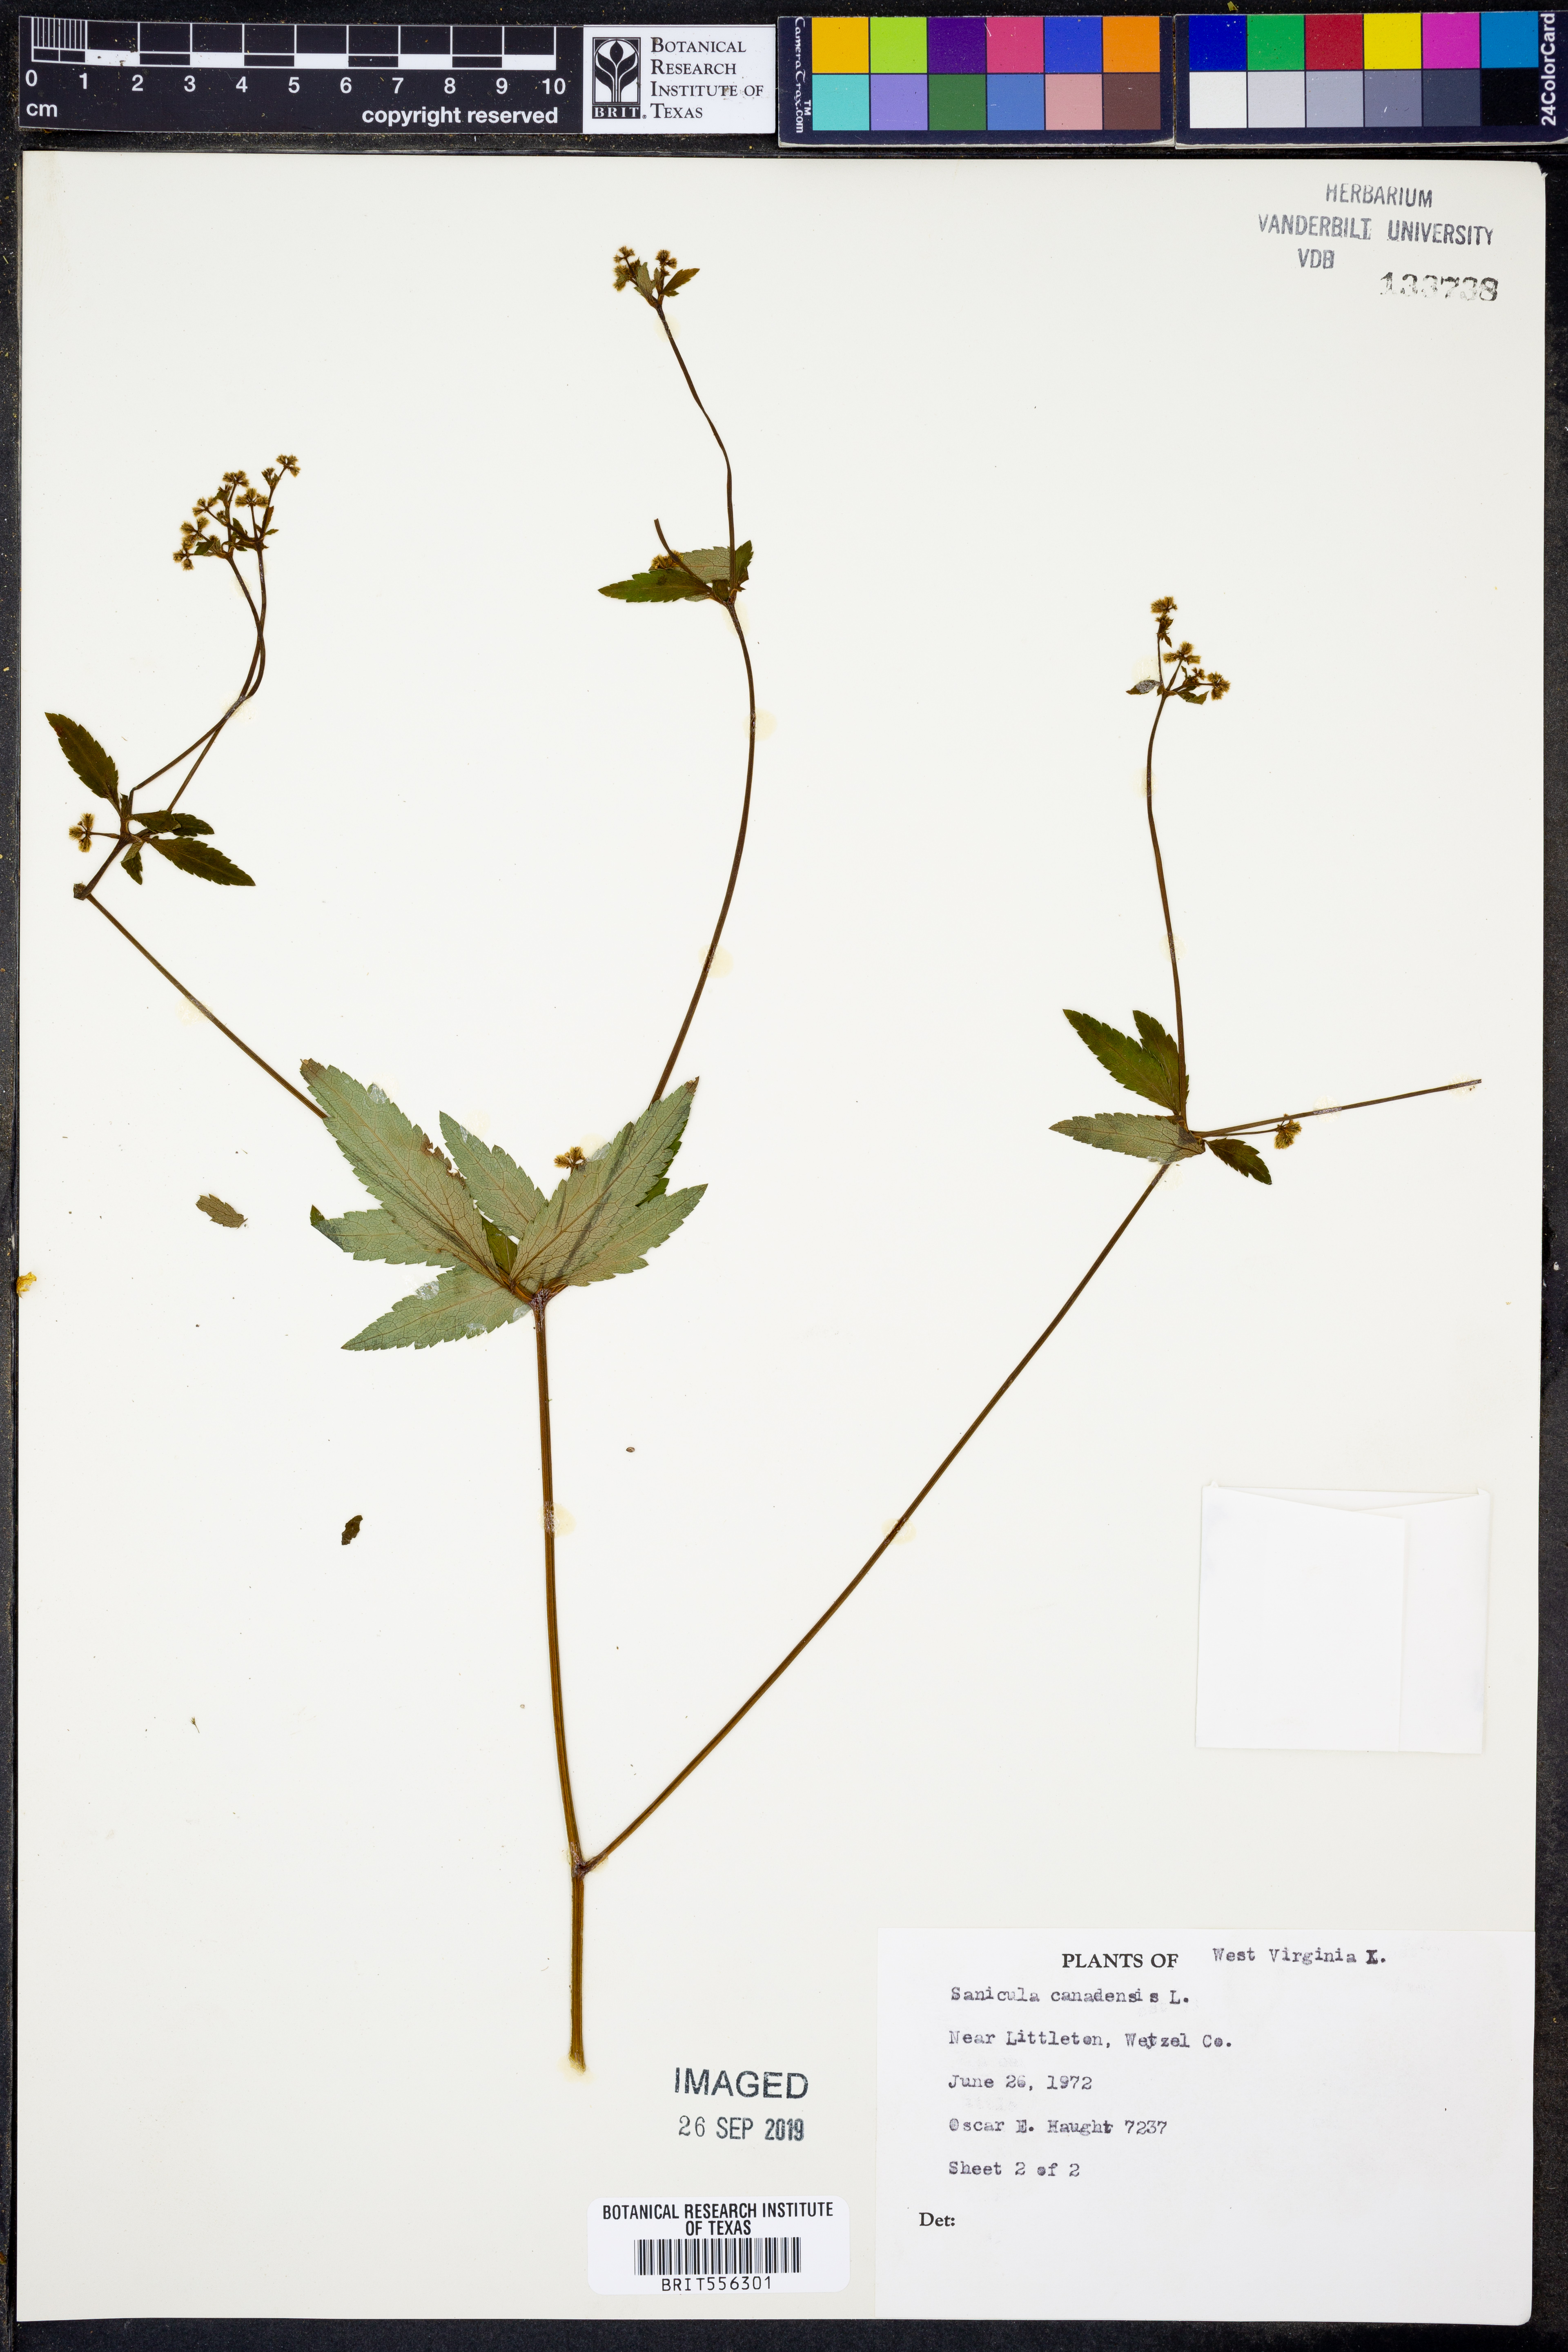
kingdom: Plantae
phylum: Tracheophyta
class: Magnoliopsida
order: Apiales
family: Apiaceae
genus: Sanicula
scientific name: Sanicula canadensis
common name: Canada sanicle
